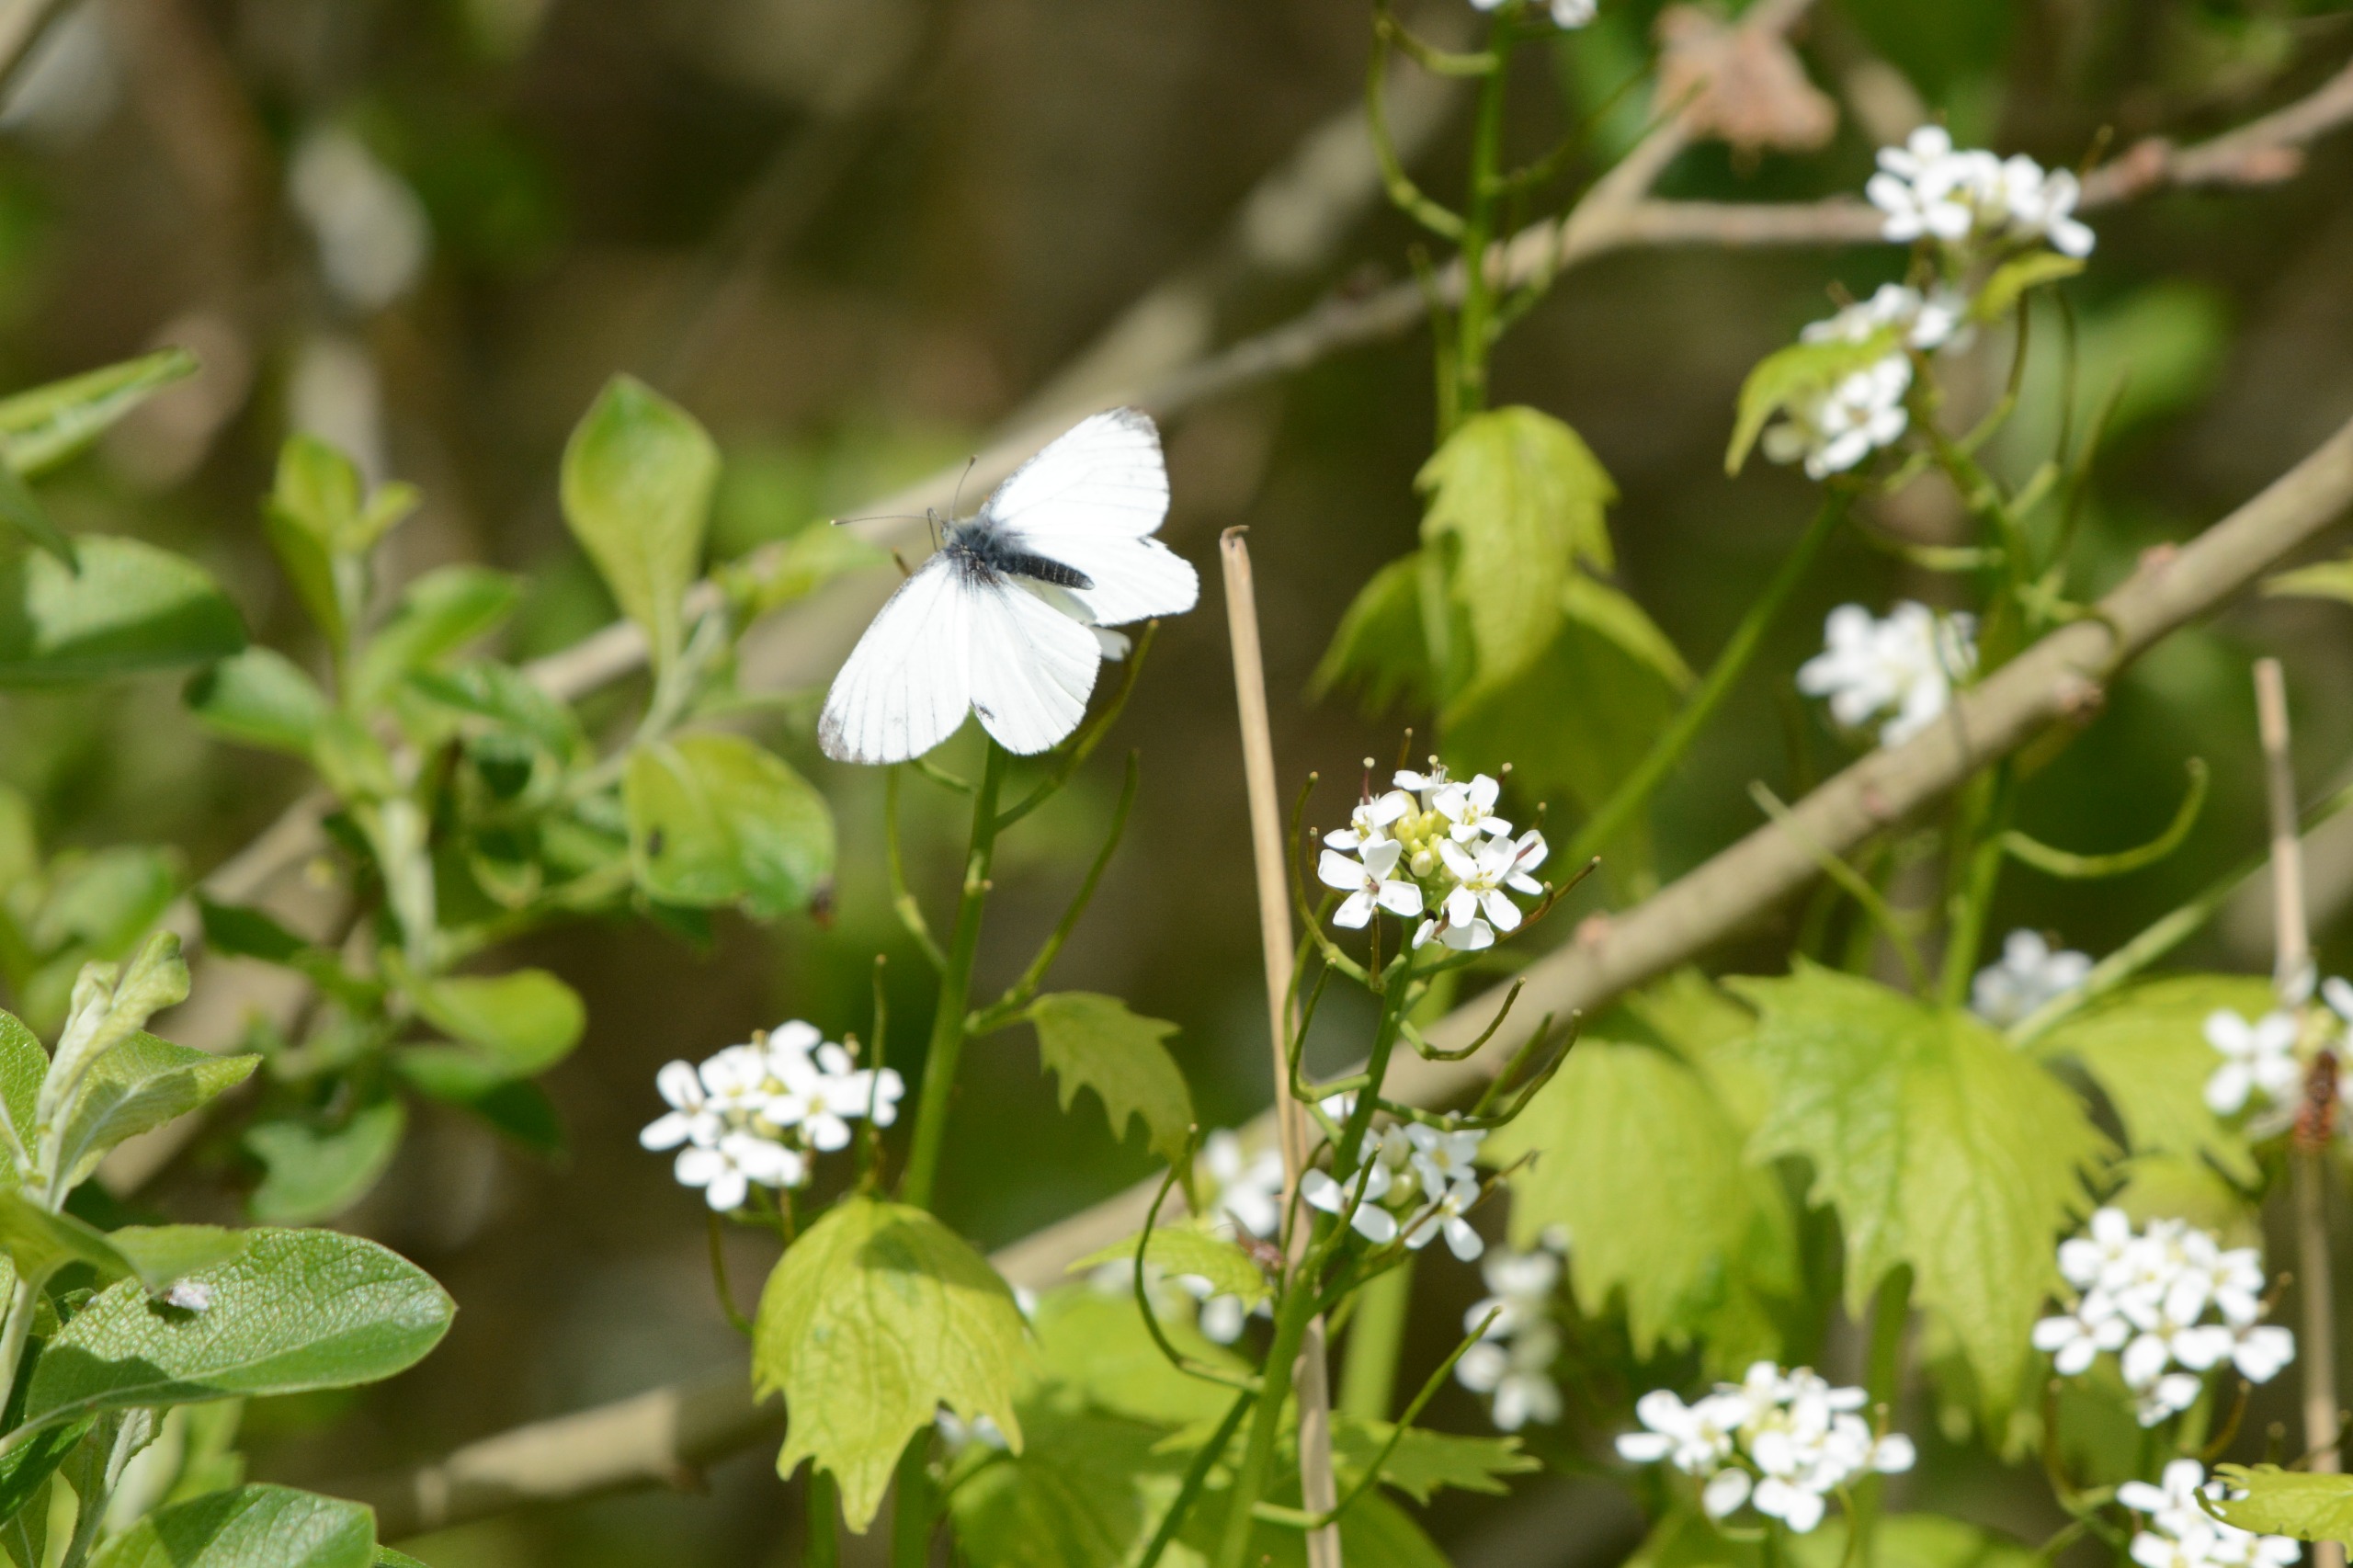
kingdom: Animalia
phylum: Arthropoda
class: Insecta
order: Lepidoptera
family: Pieridae
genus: Pieris
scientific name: Pieris napi
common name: Grønåret kålsommerfugl
